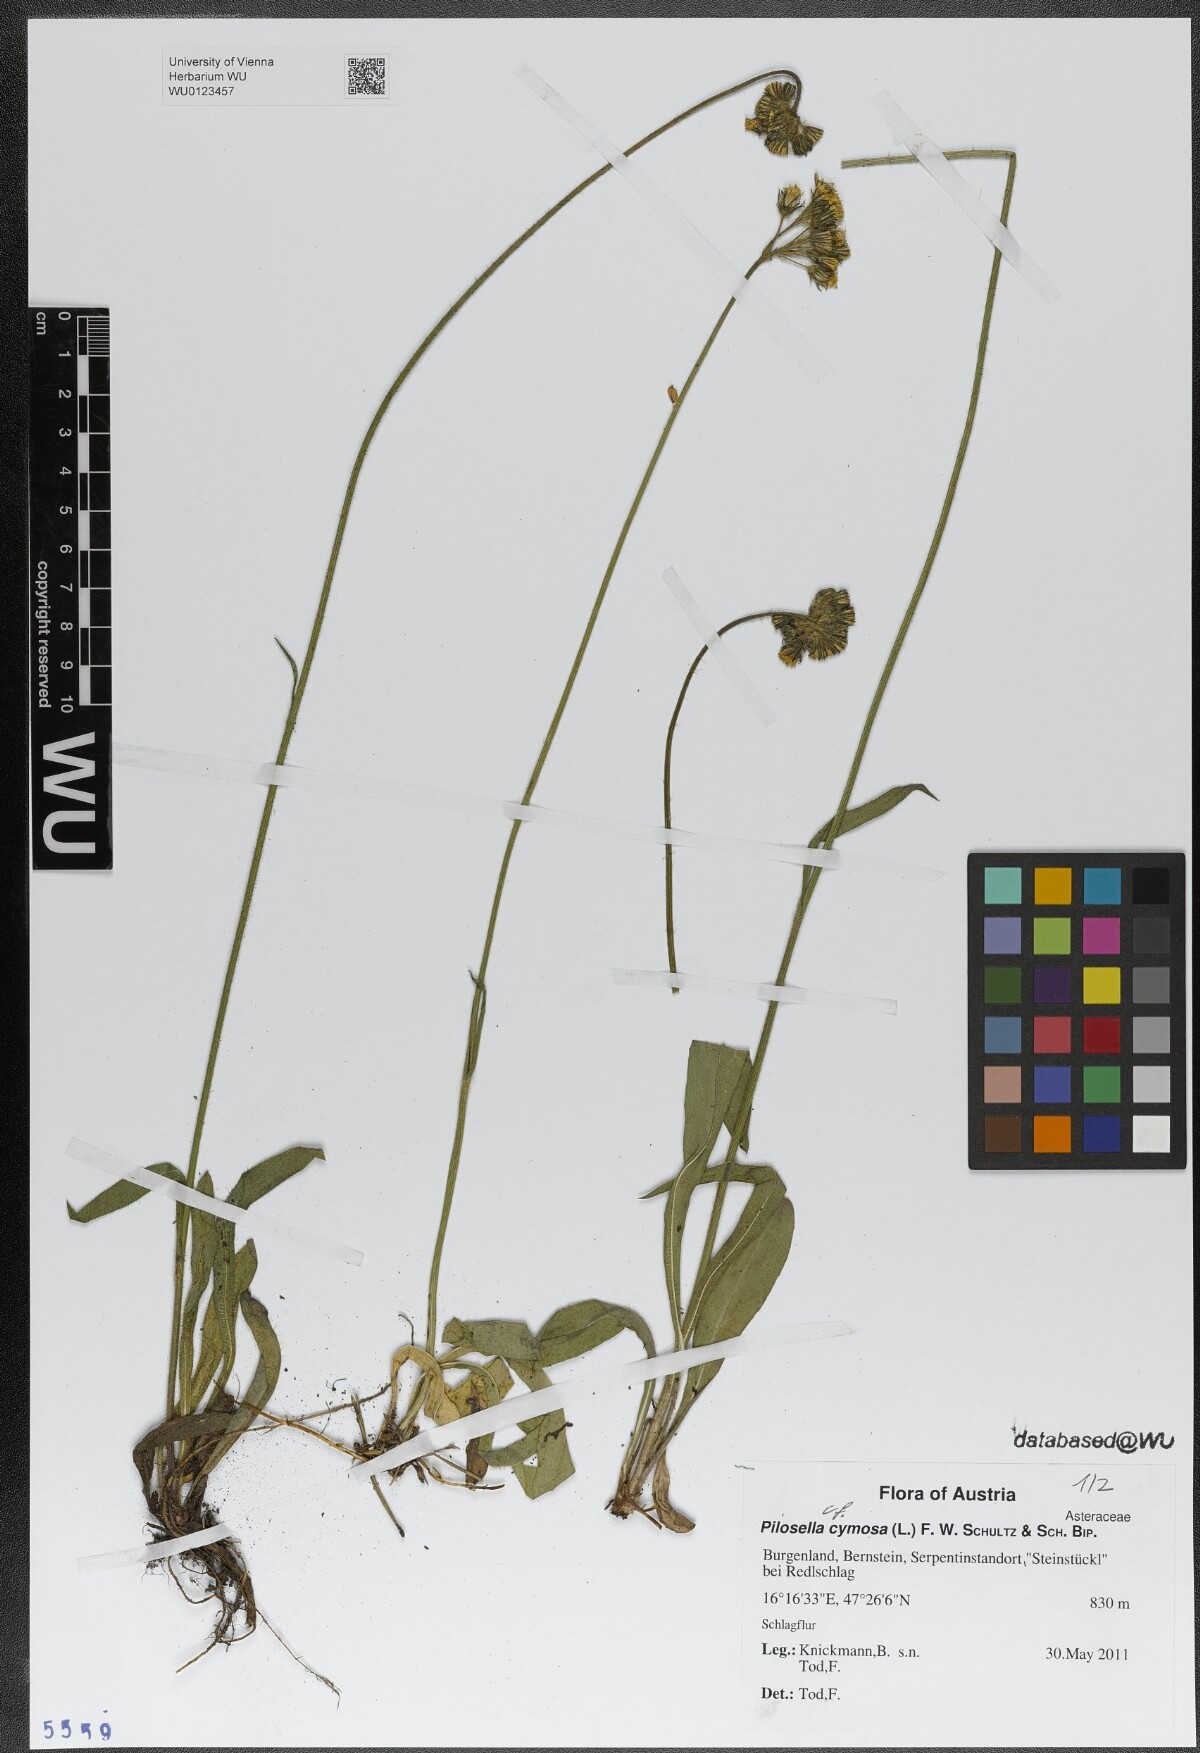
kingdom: Plantae
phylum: Tracheophyta
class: Magnoliopsida
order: Asterales
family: Asteraceae
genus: Pilosella
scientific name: Pilosella cymosa
